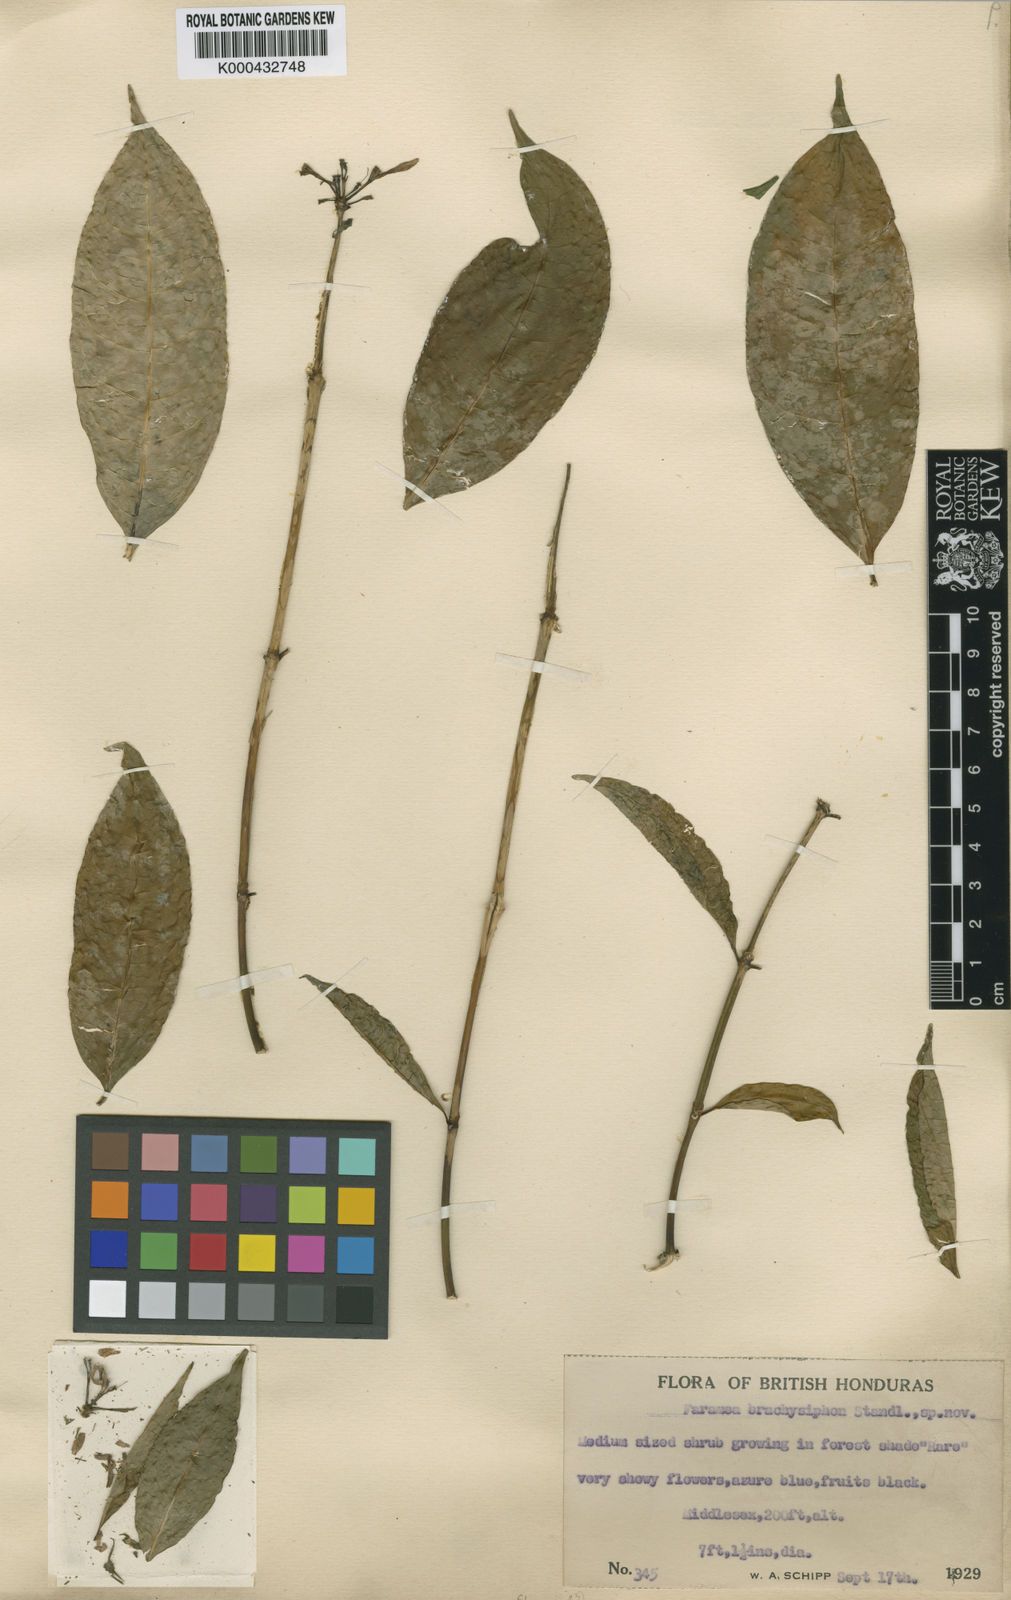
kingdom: Plantae
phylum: Tracheophyta
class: Magnoliopsida
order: Gentianales
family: Rubiaceae
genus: Faramea
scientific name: Faramea brachysiphon
